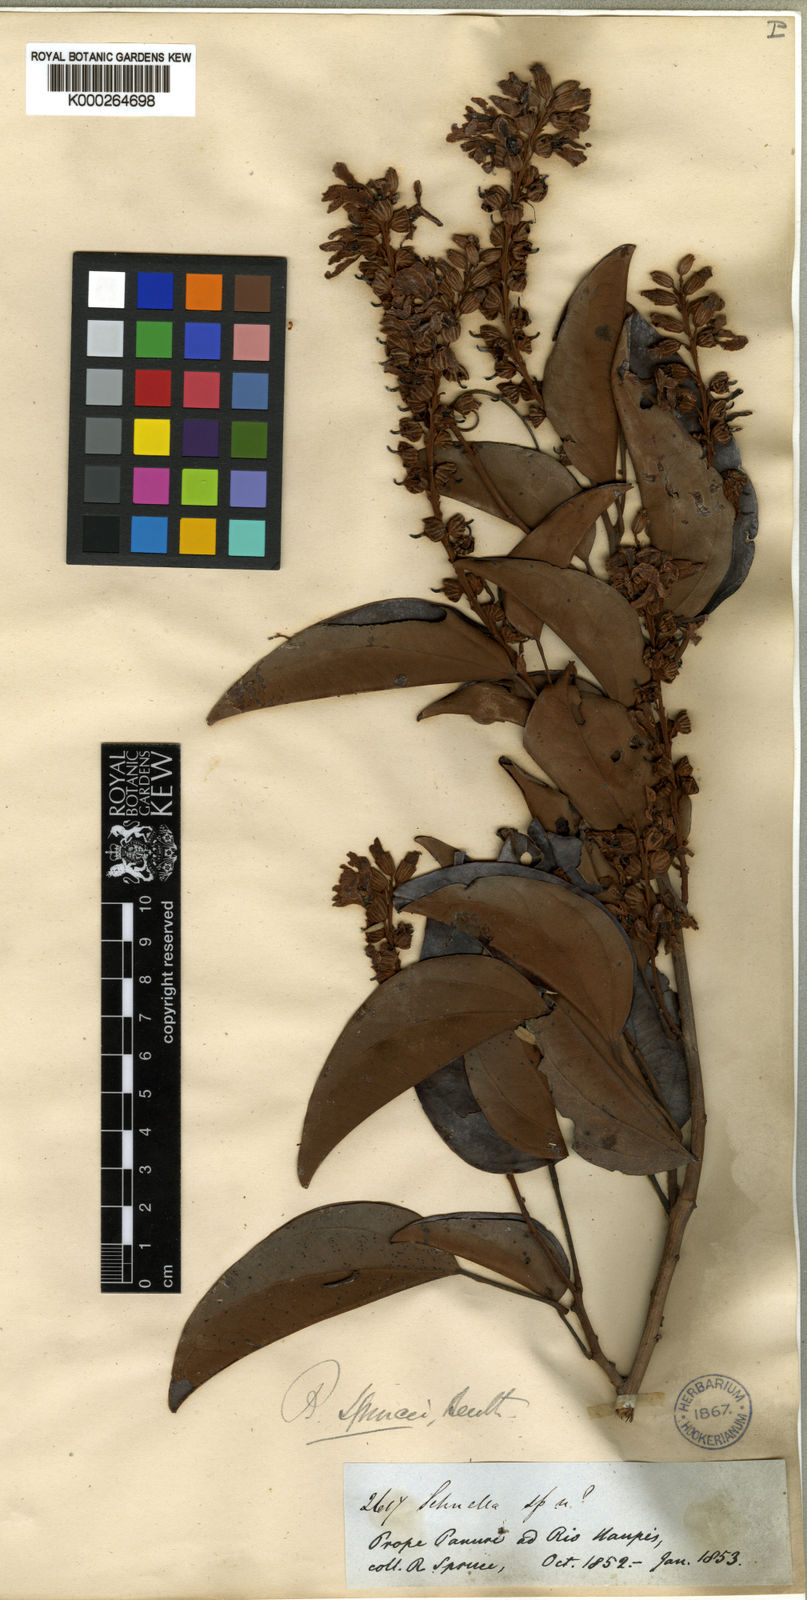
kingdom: Plantae
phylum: Tracheophyta
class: Magnoliopsida
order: Fabales
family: Fabaceae
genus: Schnella
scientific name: Schnella sprucei
